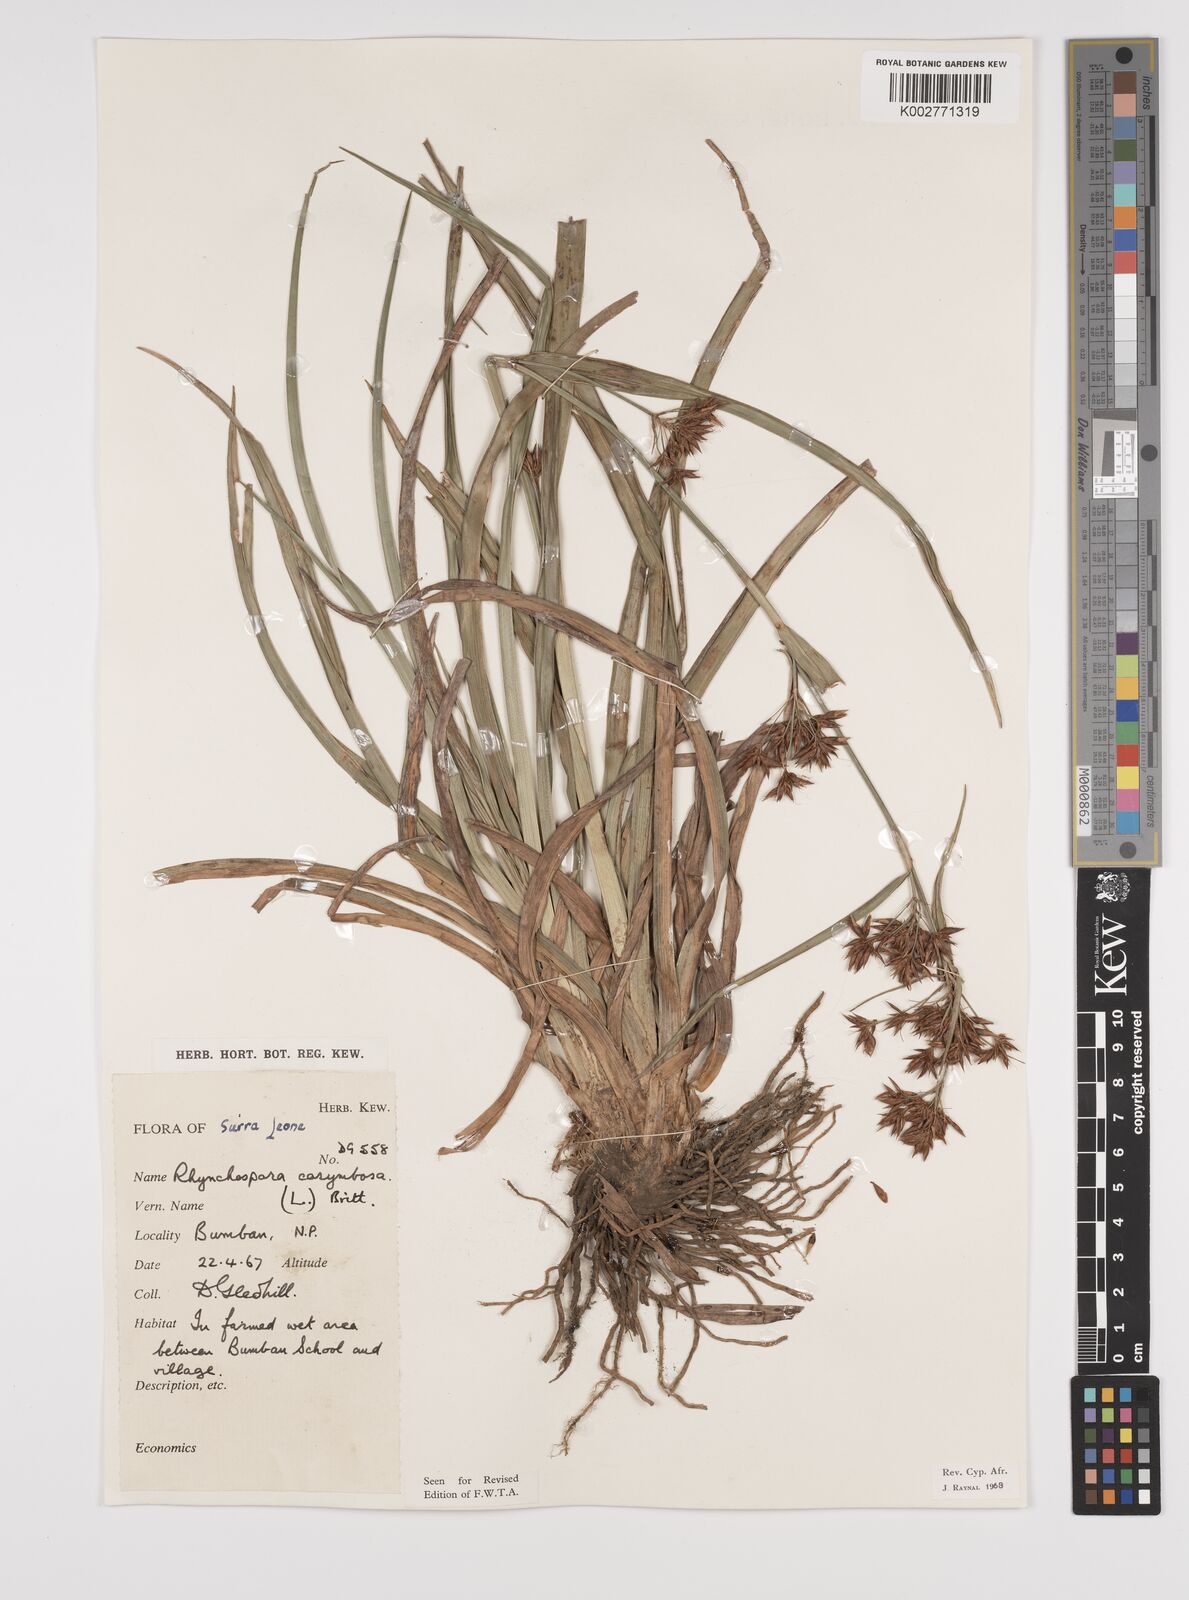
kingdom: Plantae
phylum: Tracheophyta
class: Liliopsida
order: Poales
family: Cyperaceae
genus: Rhynchospora
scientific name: Rhynchospora corymbosa
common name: Golden beak sedge
